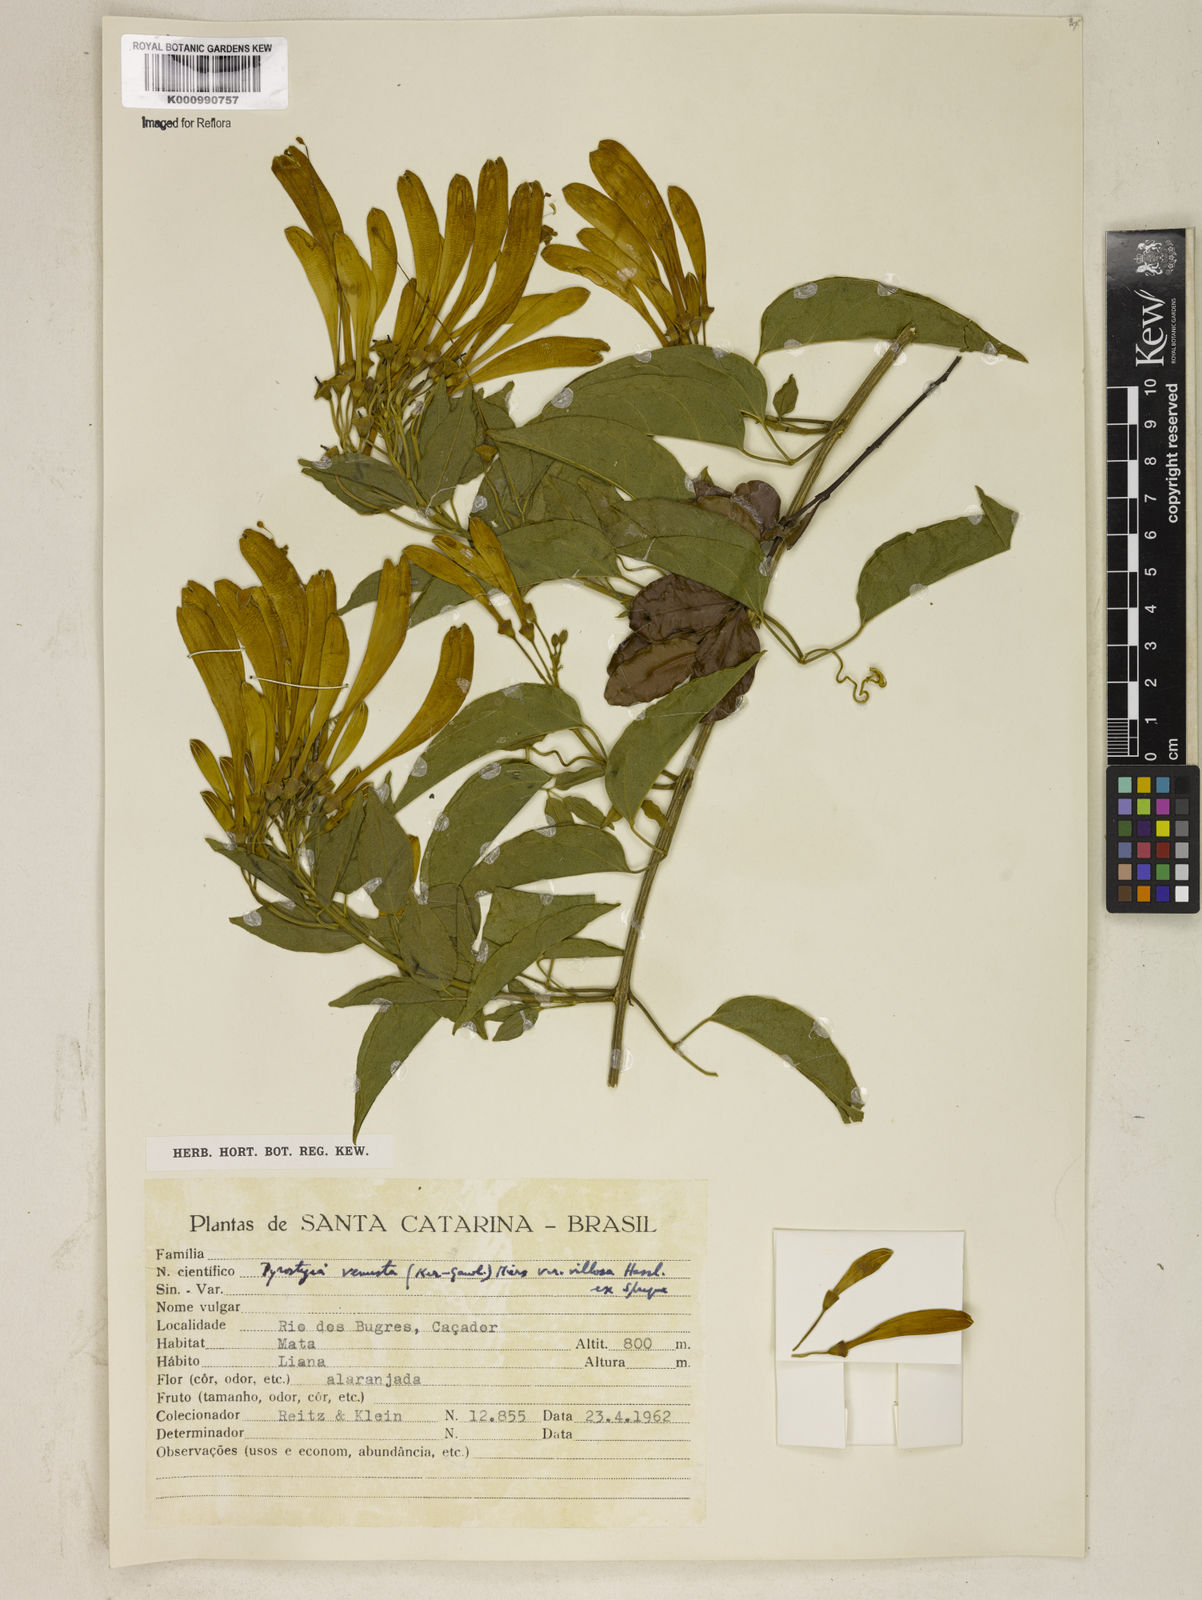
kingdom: Plantae
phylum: Tracheophyta
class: Magnoliopsida
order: Lamiales
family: Bignoniaceae
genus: Pyrostegia
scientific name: Pyrostegia venusta
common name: Flamevine
